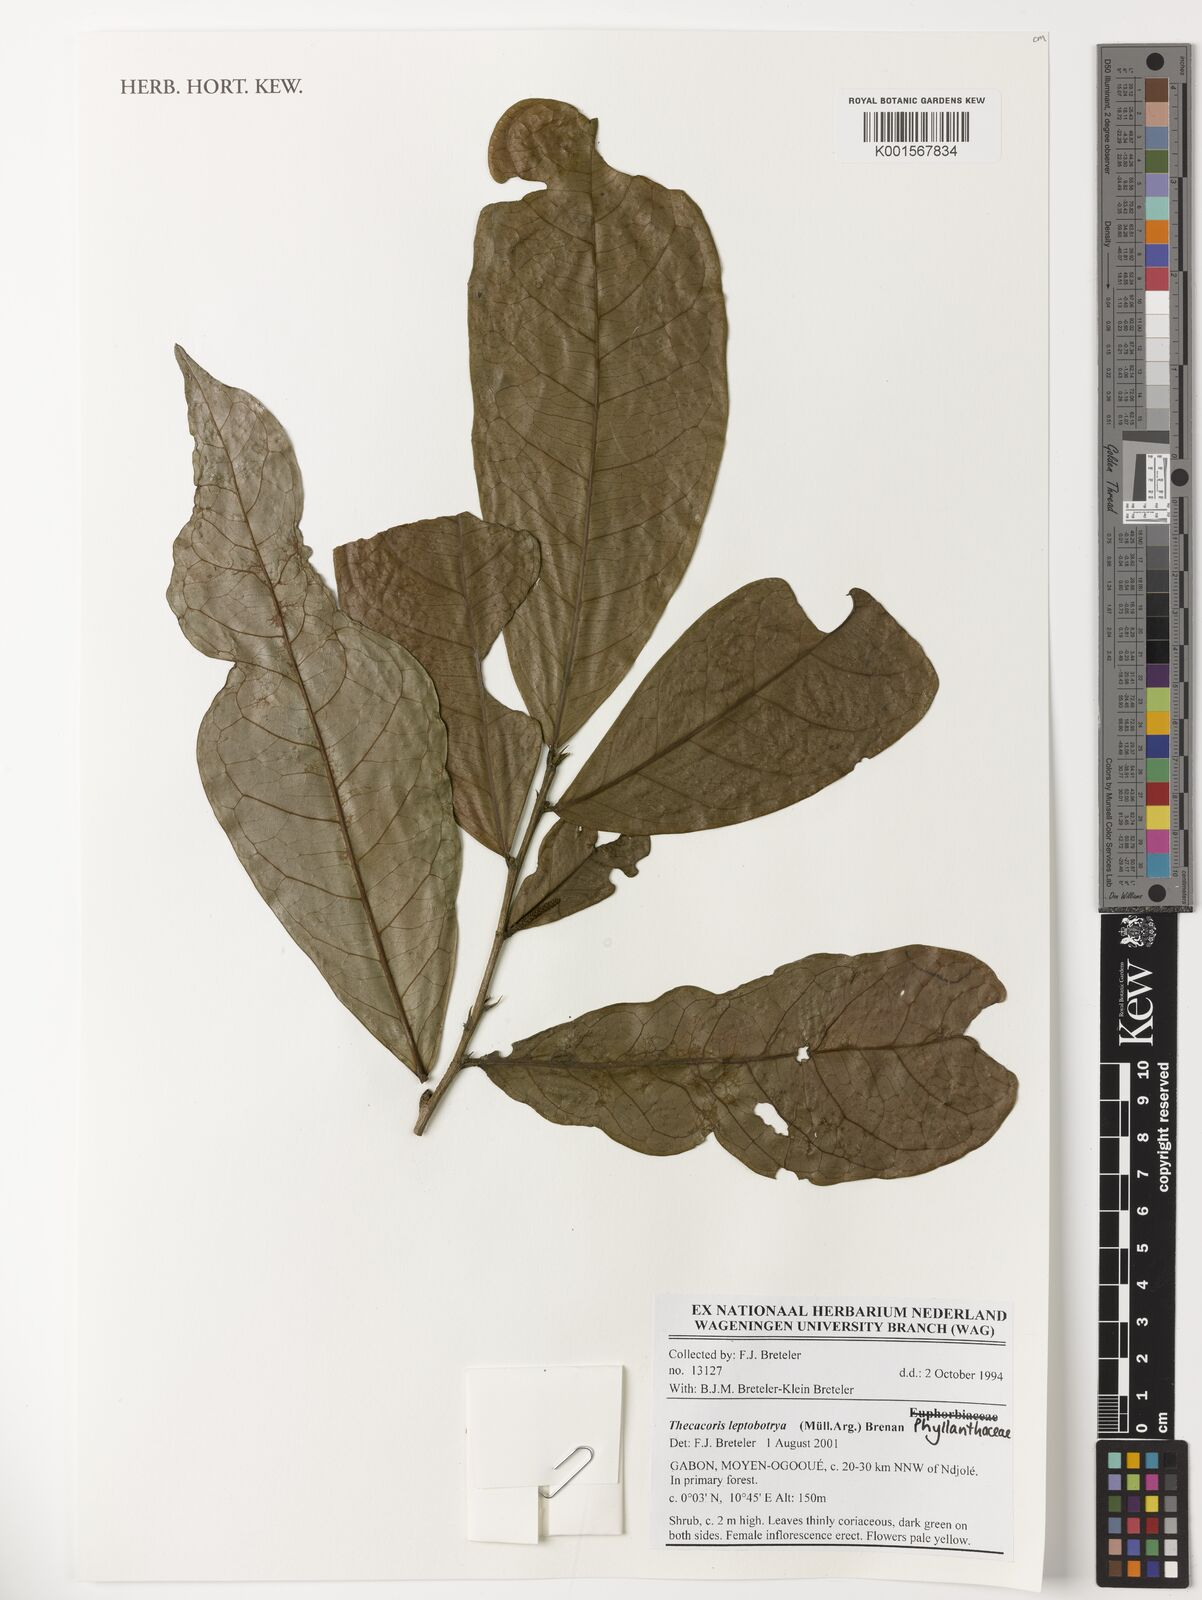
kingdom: Plantae
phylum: Tracheophyta
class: Magnoliopsida
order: Malpighiales
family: Phyllanthaceae
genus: Thecacoris
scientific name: Thecacoris leptobotrya
